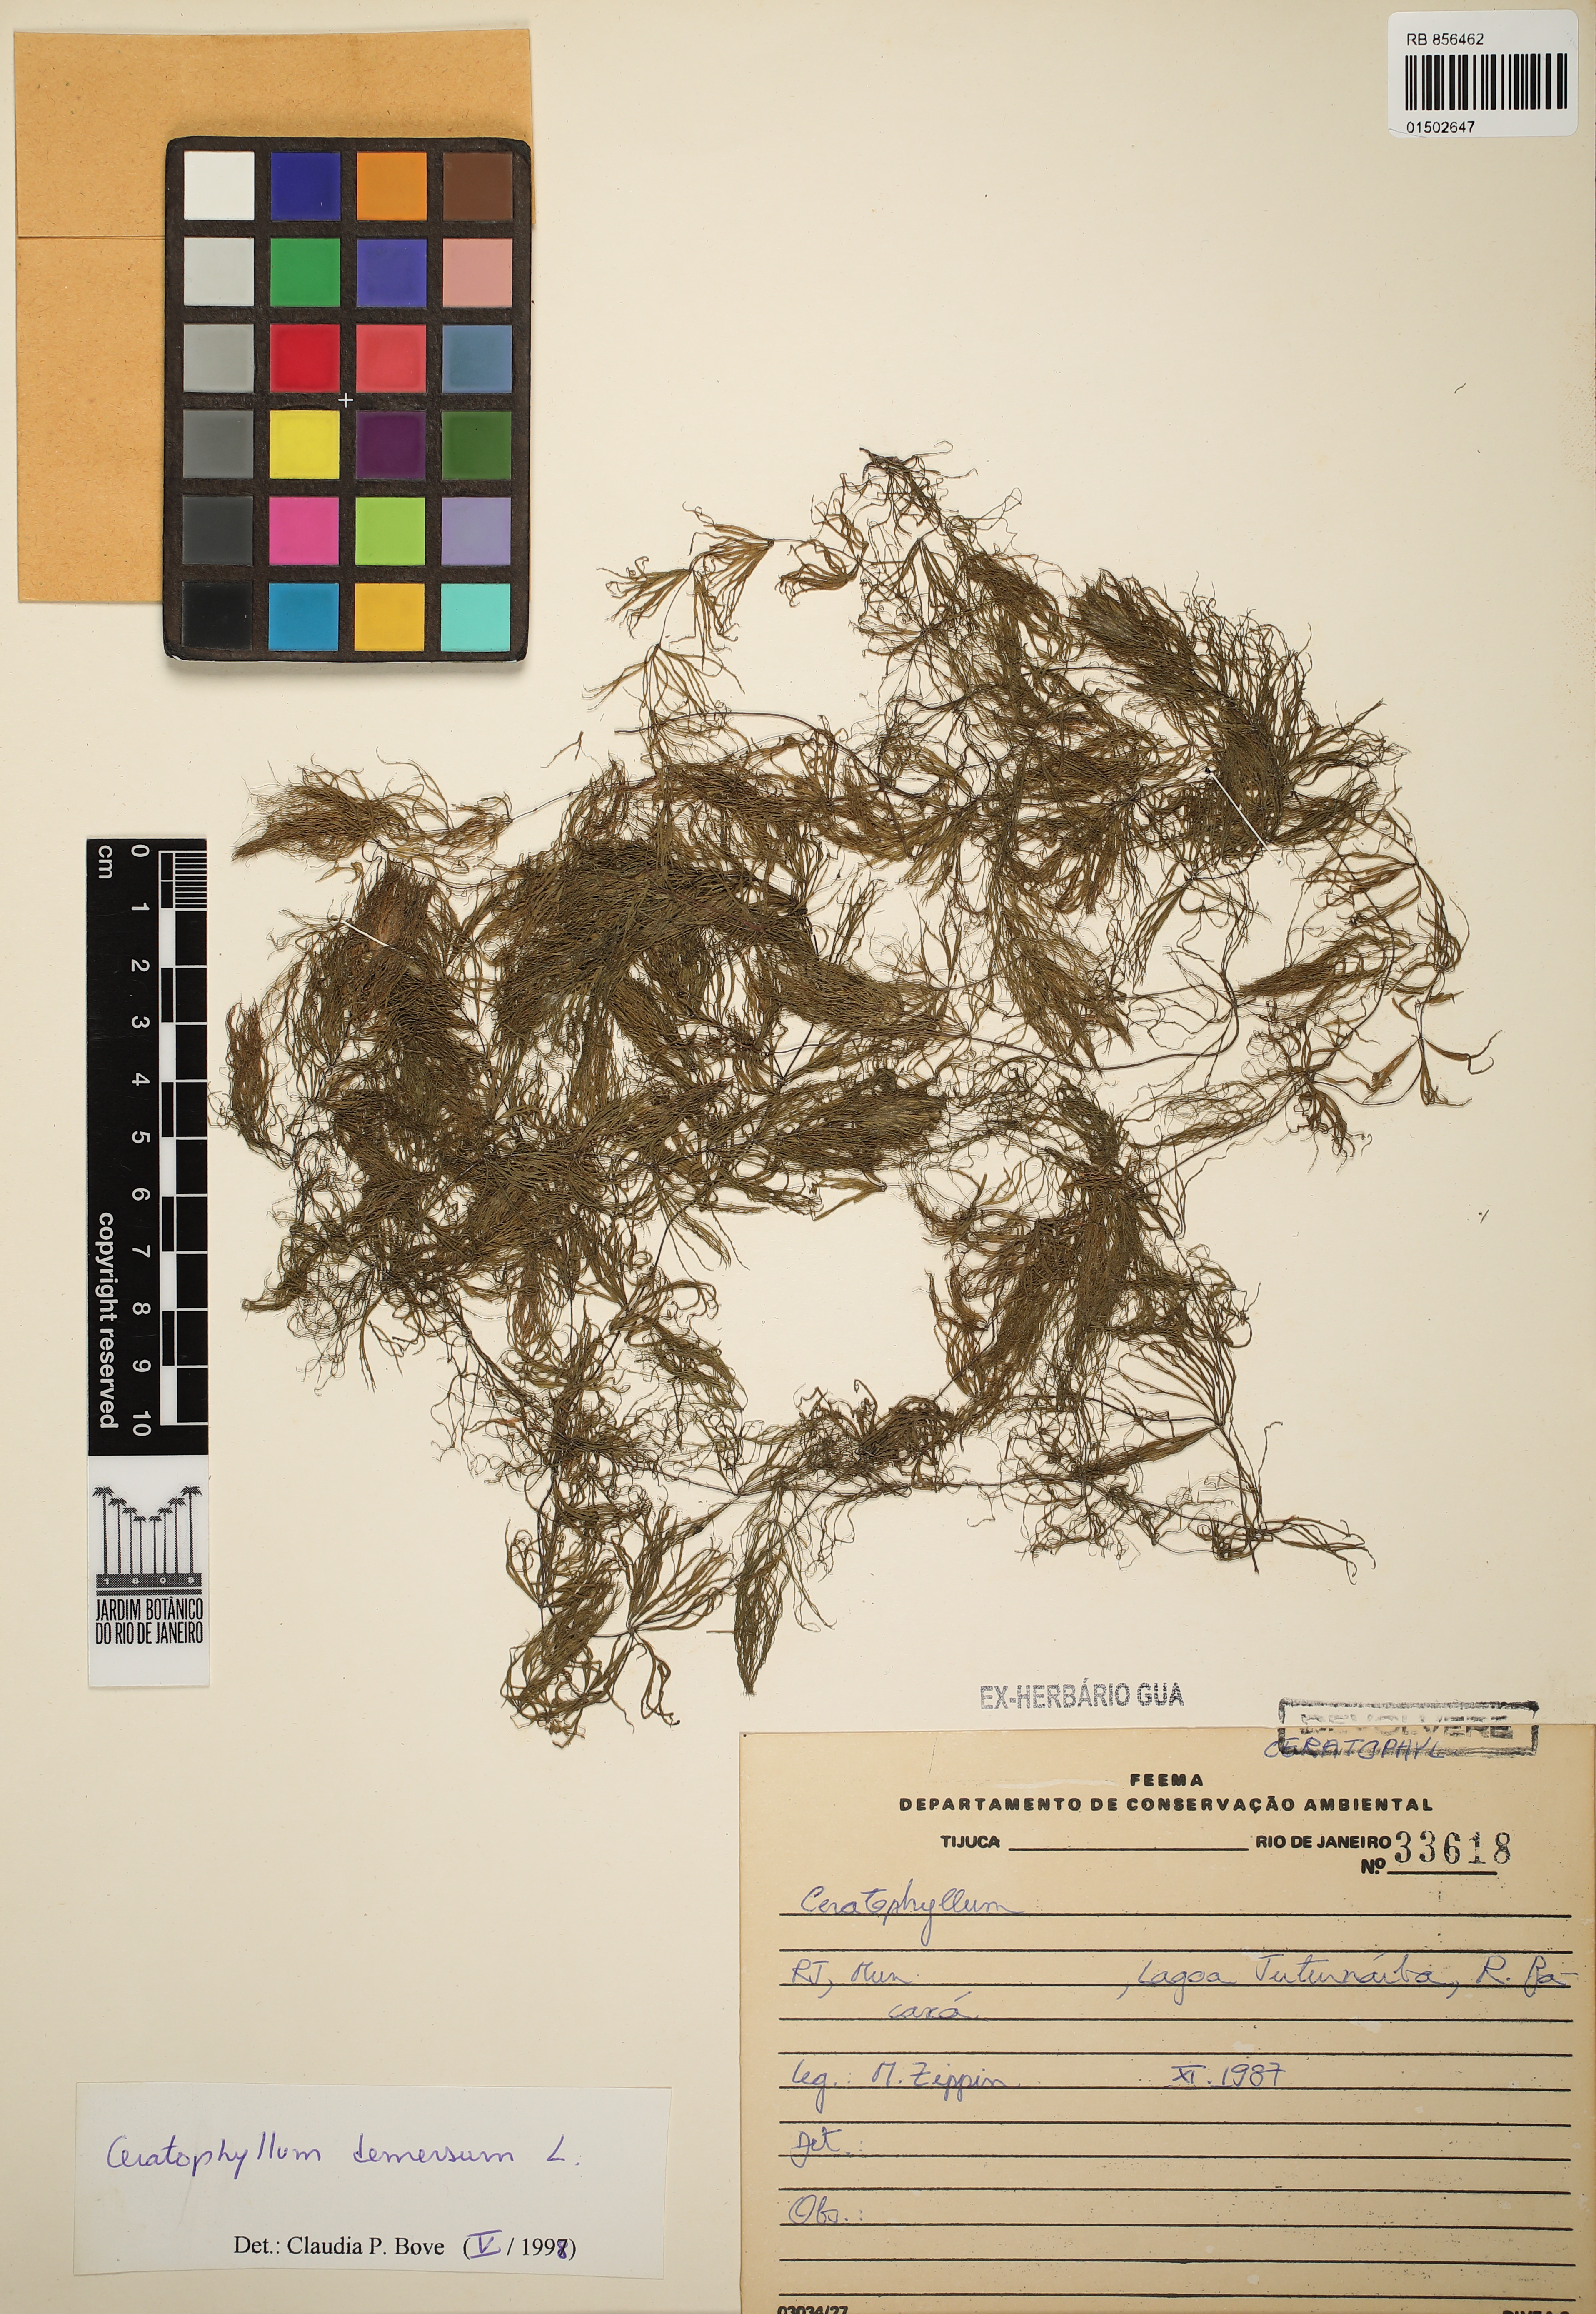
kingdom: Plantae
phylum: Tracheophyta
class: Magnoliopsida
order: Ceratophyllales
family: Ceratophyllaceae
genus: Ceratophyllum
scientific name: Ceratophyllum demersum
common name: Rigid hornwort
